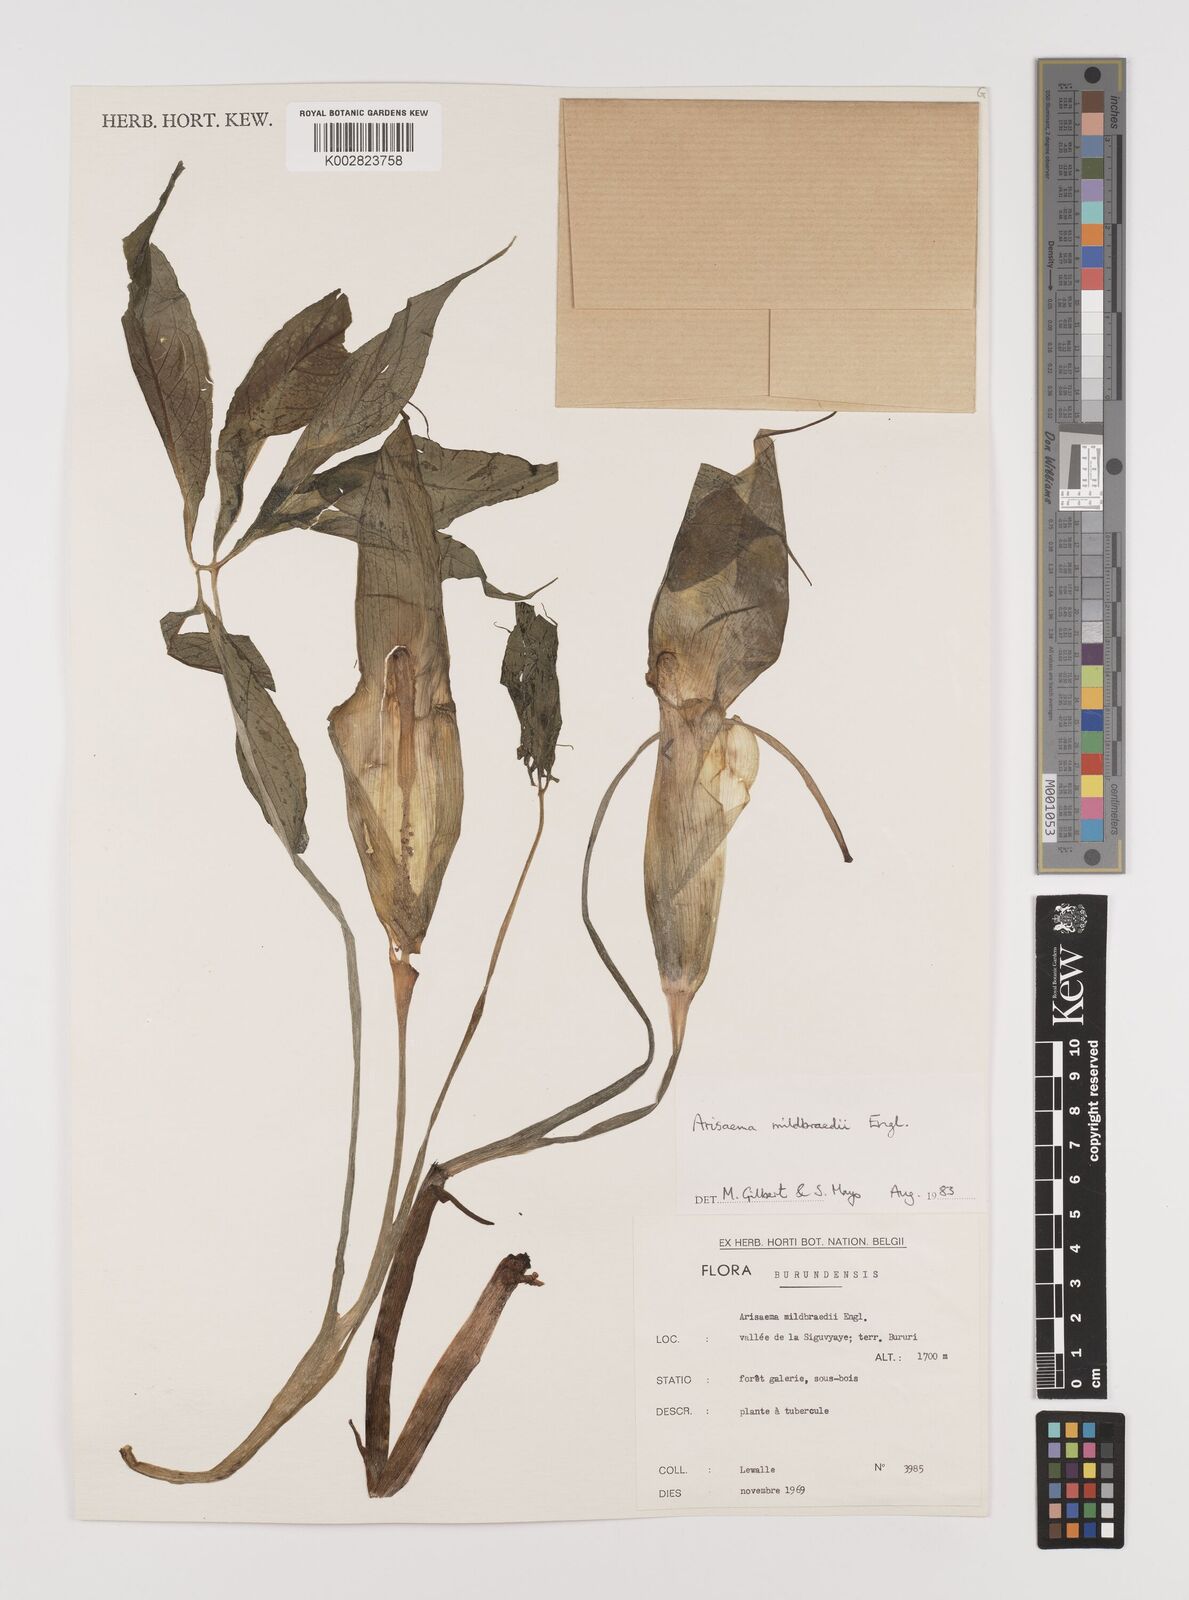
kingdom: Plantae
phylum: Tracheophyta
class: Liliopsida
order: Alismatales
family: Araceae
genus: Arisaema
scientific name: Arisaema mildbraedii
